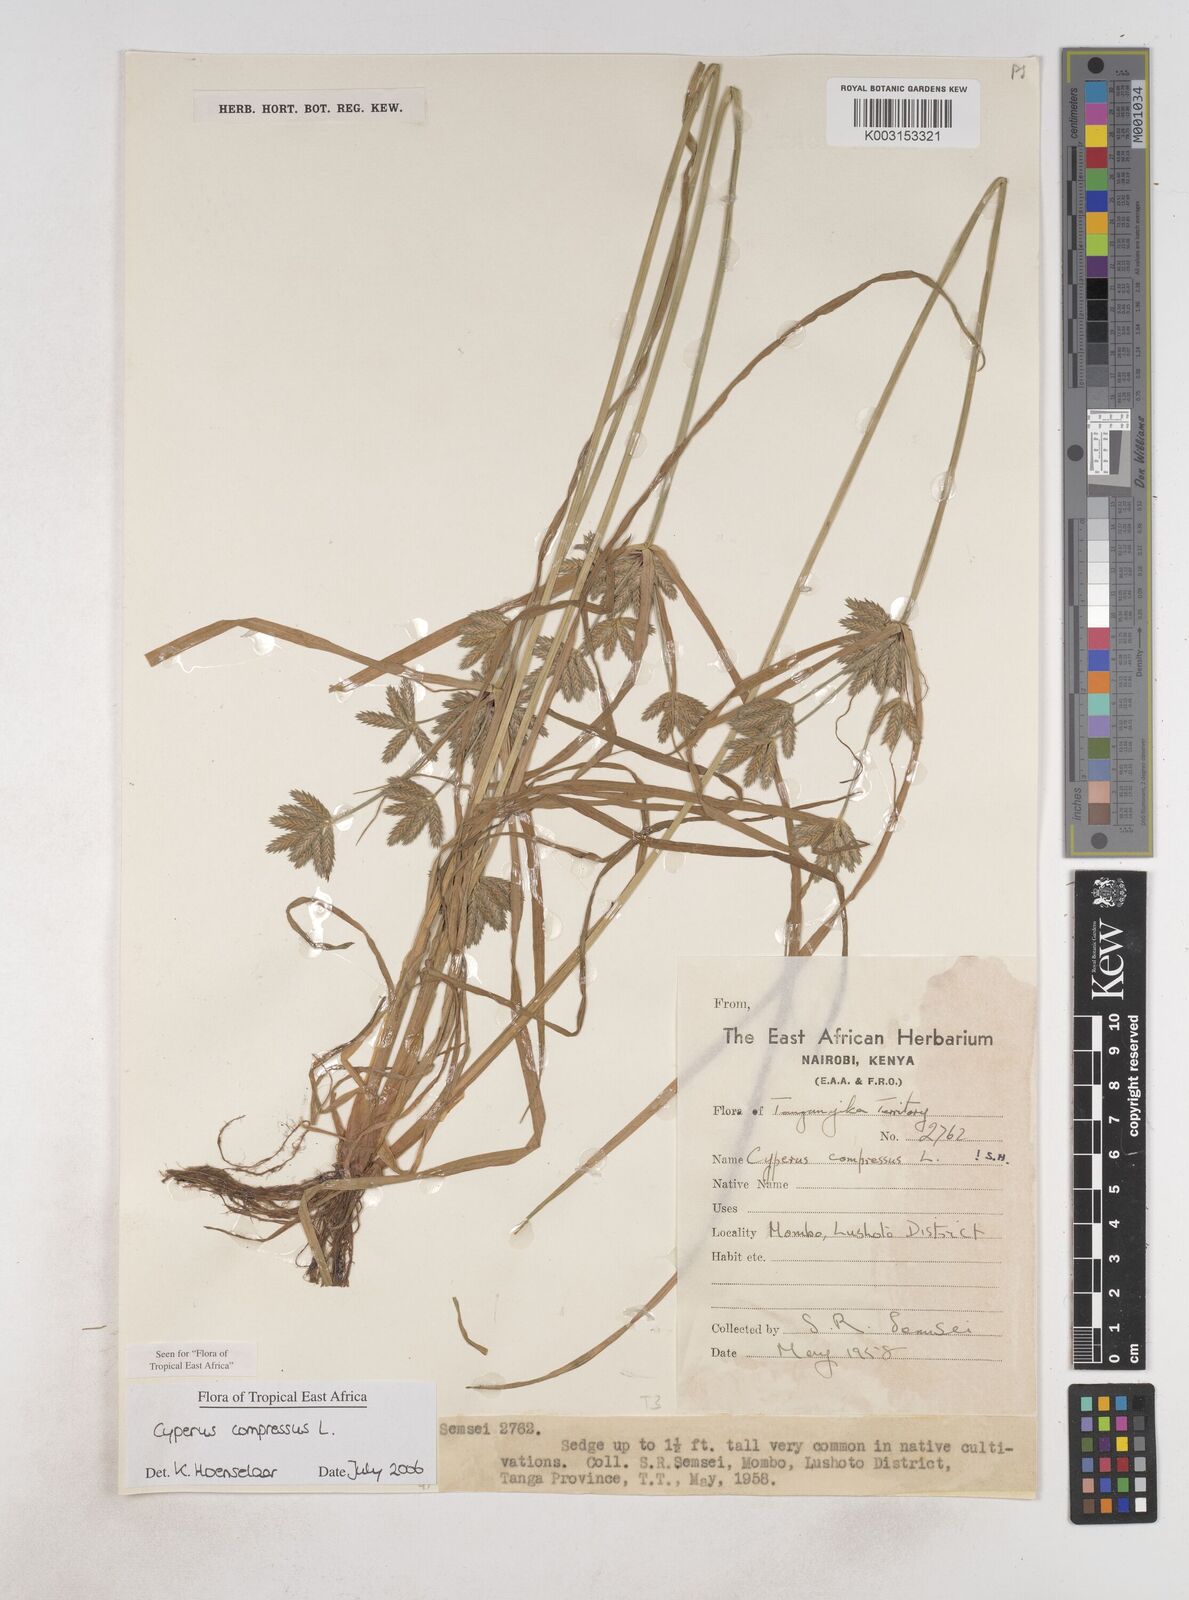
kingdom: Plantae
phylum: Tracheophyta
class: Liliopsida
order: Poales
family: Cyperaceae
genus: Cyperus
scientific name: Cyperus compressus
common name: Poorland flatsedge
